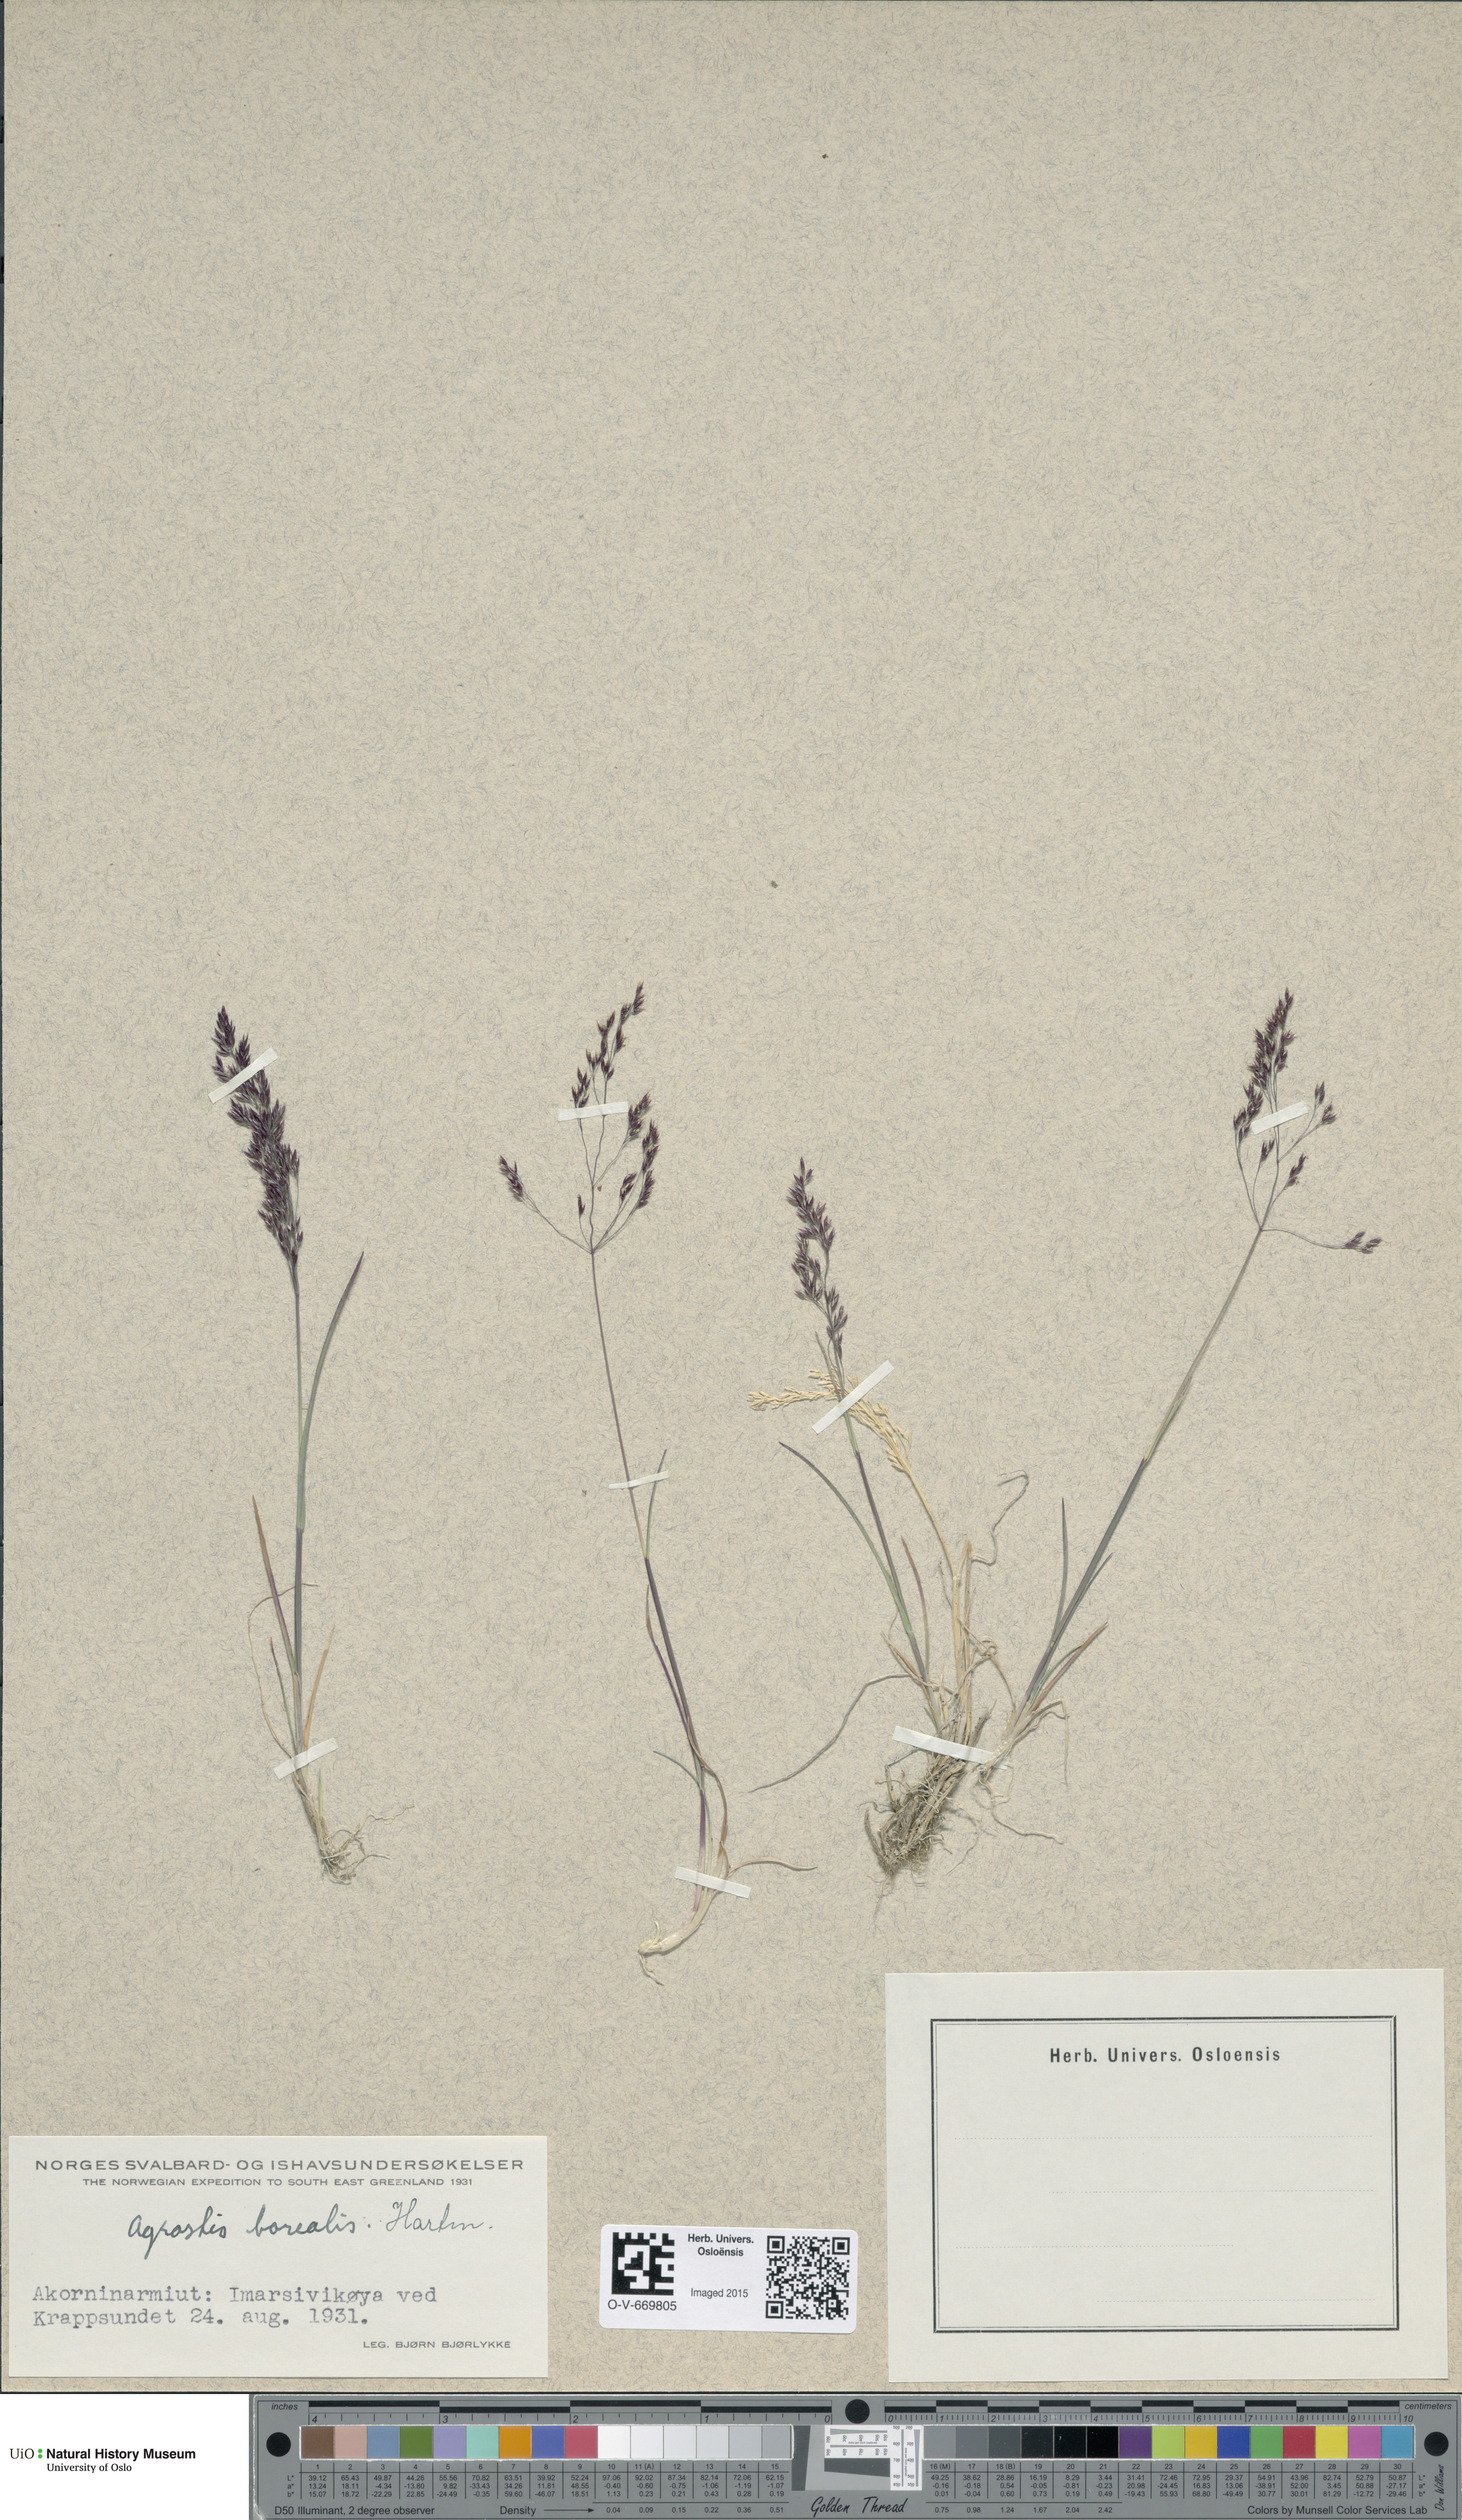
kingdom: Plantae
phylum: Tracheophyta
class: Liliopsida
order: Poales
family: Poaceae
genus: Agrostis
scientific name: Agrostis mertensii
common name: Northern bent
